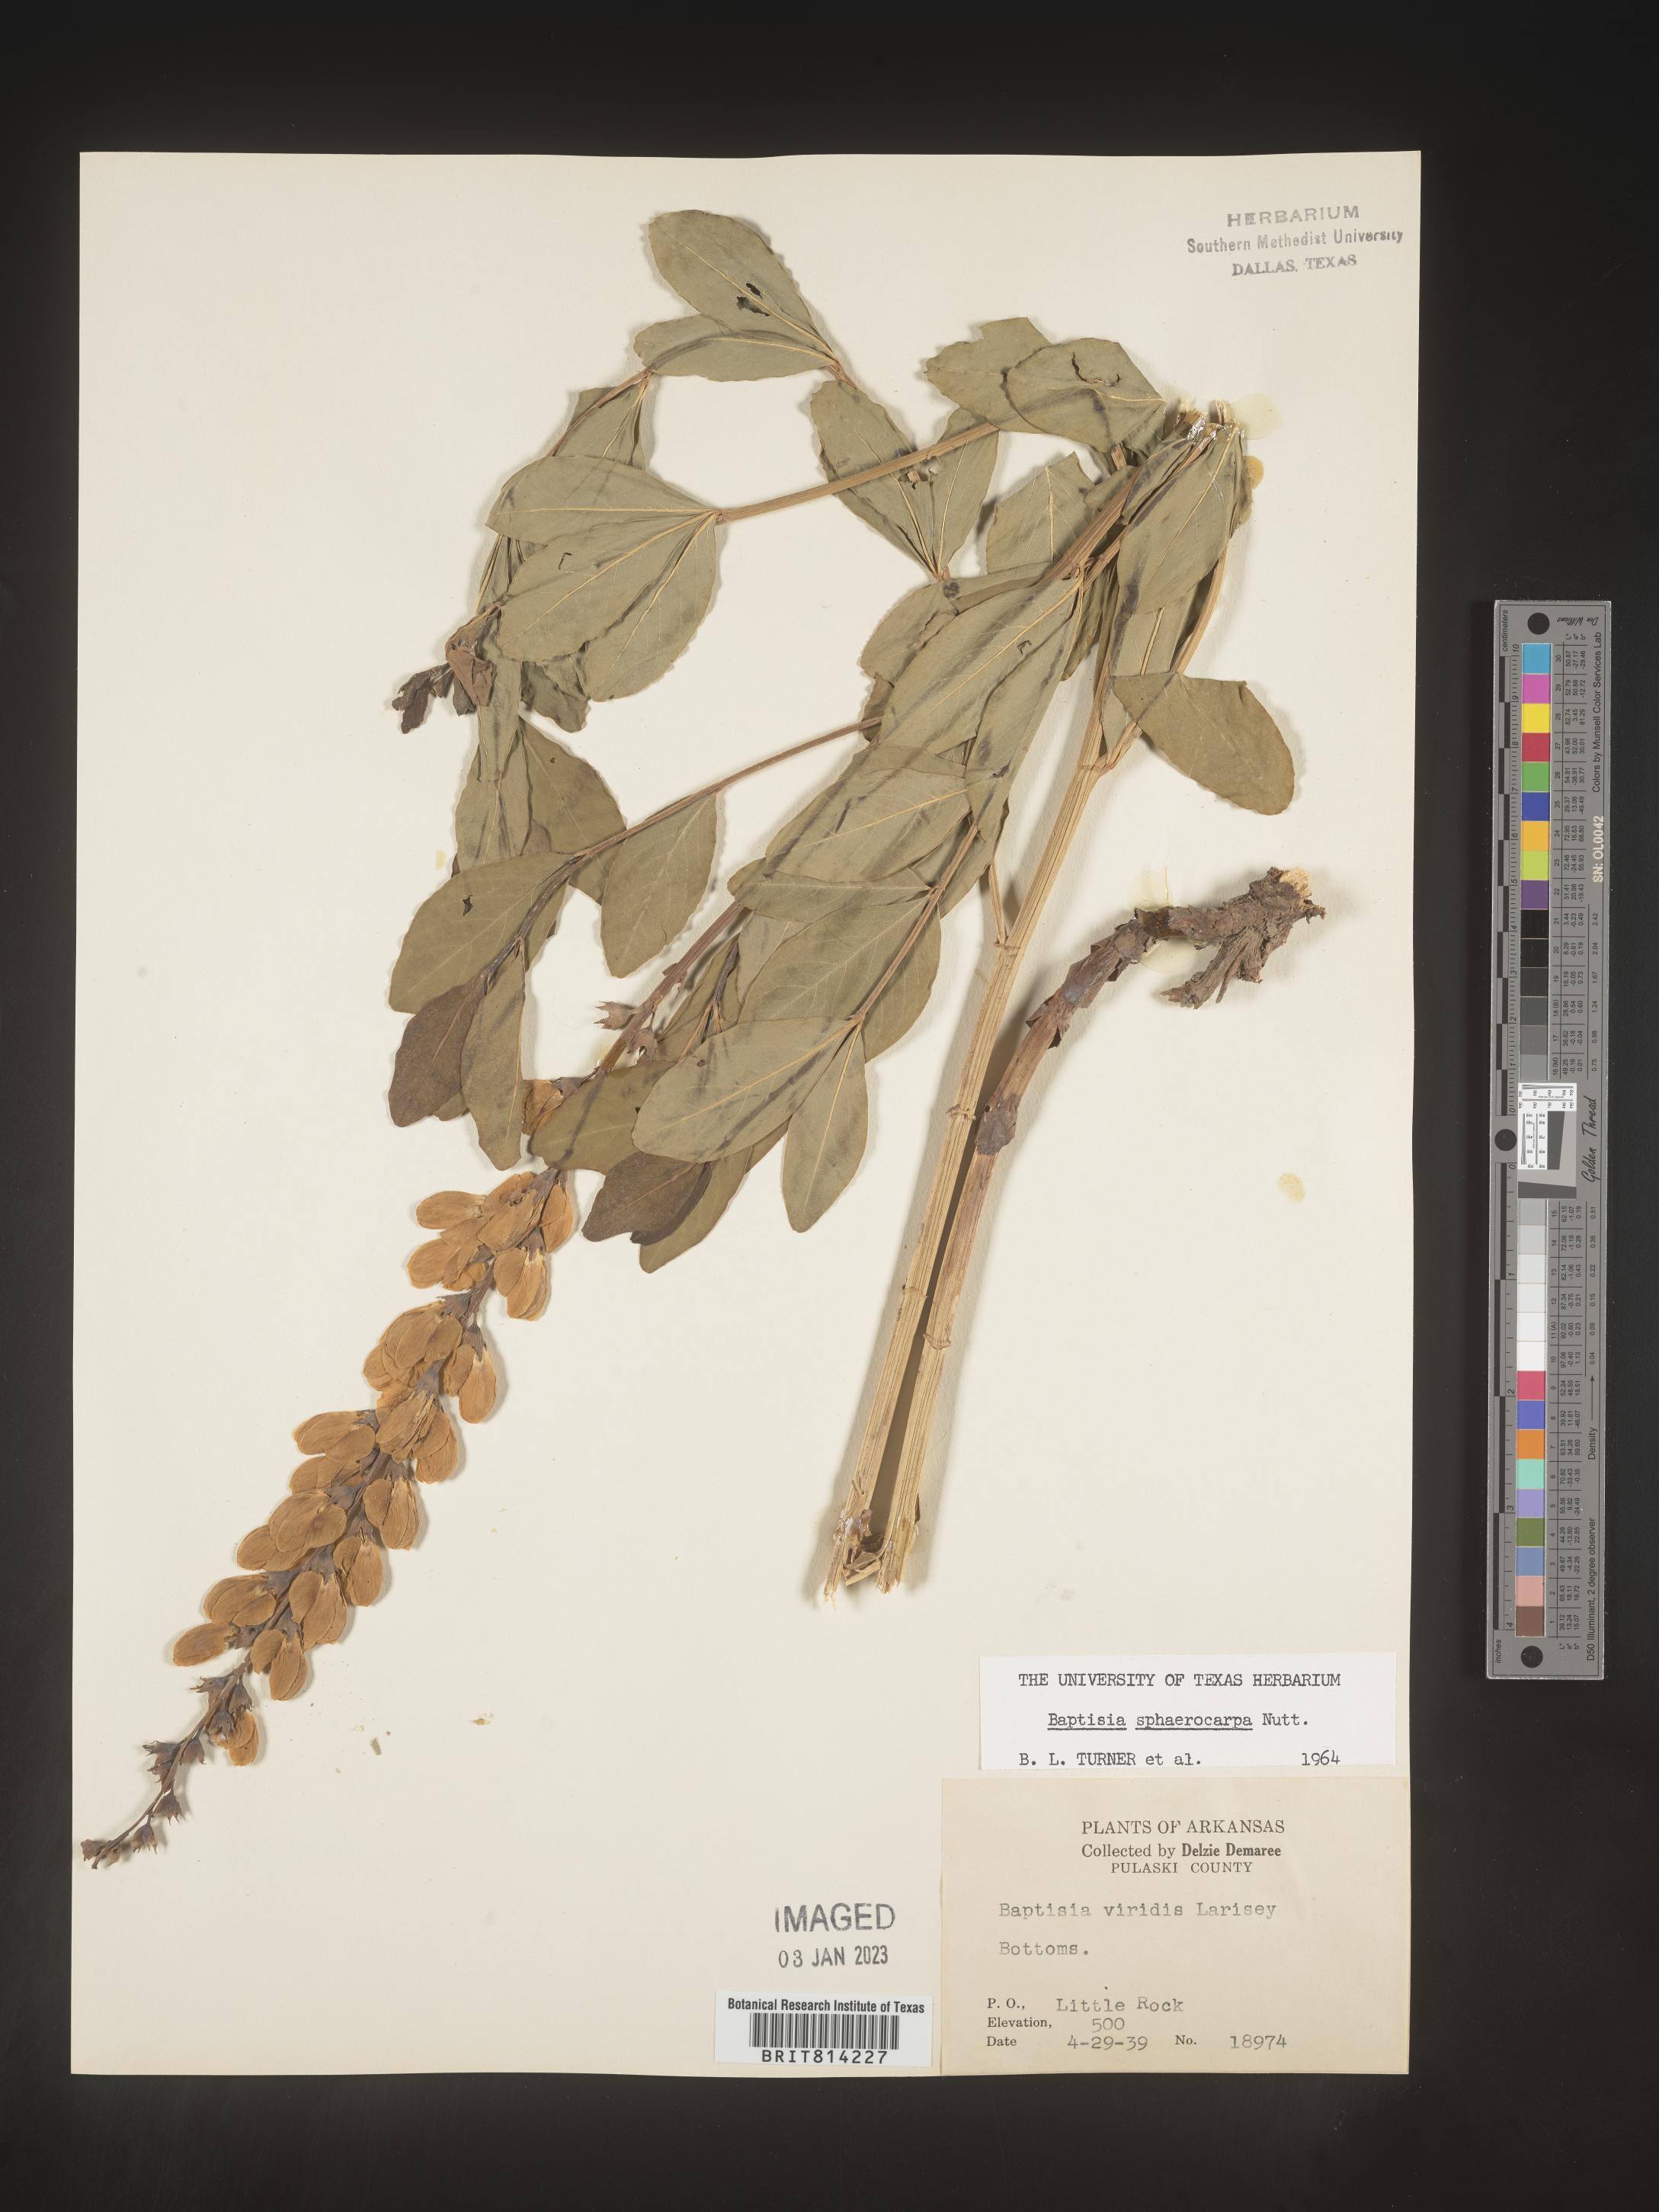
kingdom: Plantae
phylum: Tracheophyta
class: Magnoliopsida
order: Fabales
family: Fabaceae
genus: Baptisia
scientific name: Baptisia sphaerocarpa
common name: Round wild indigo
